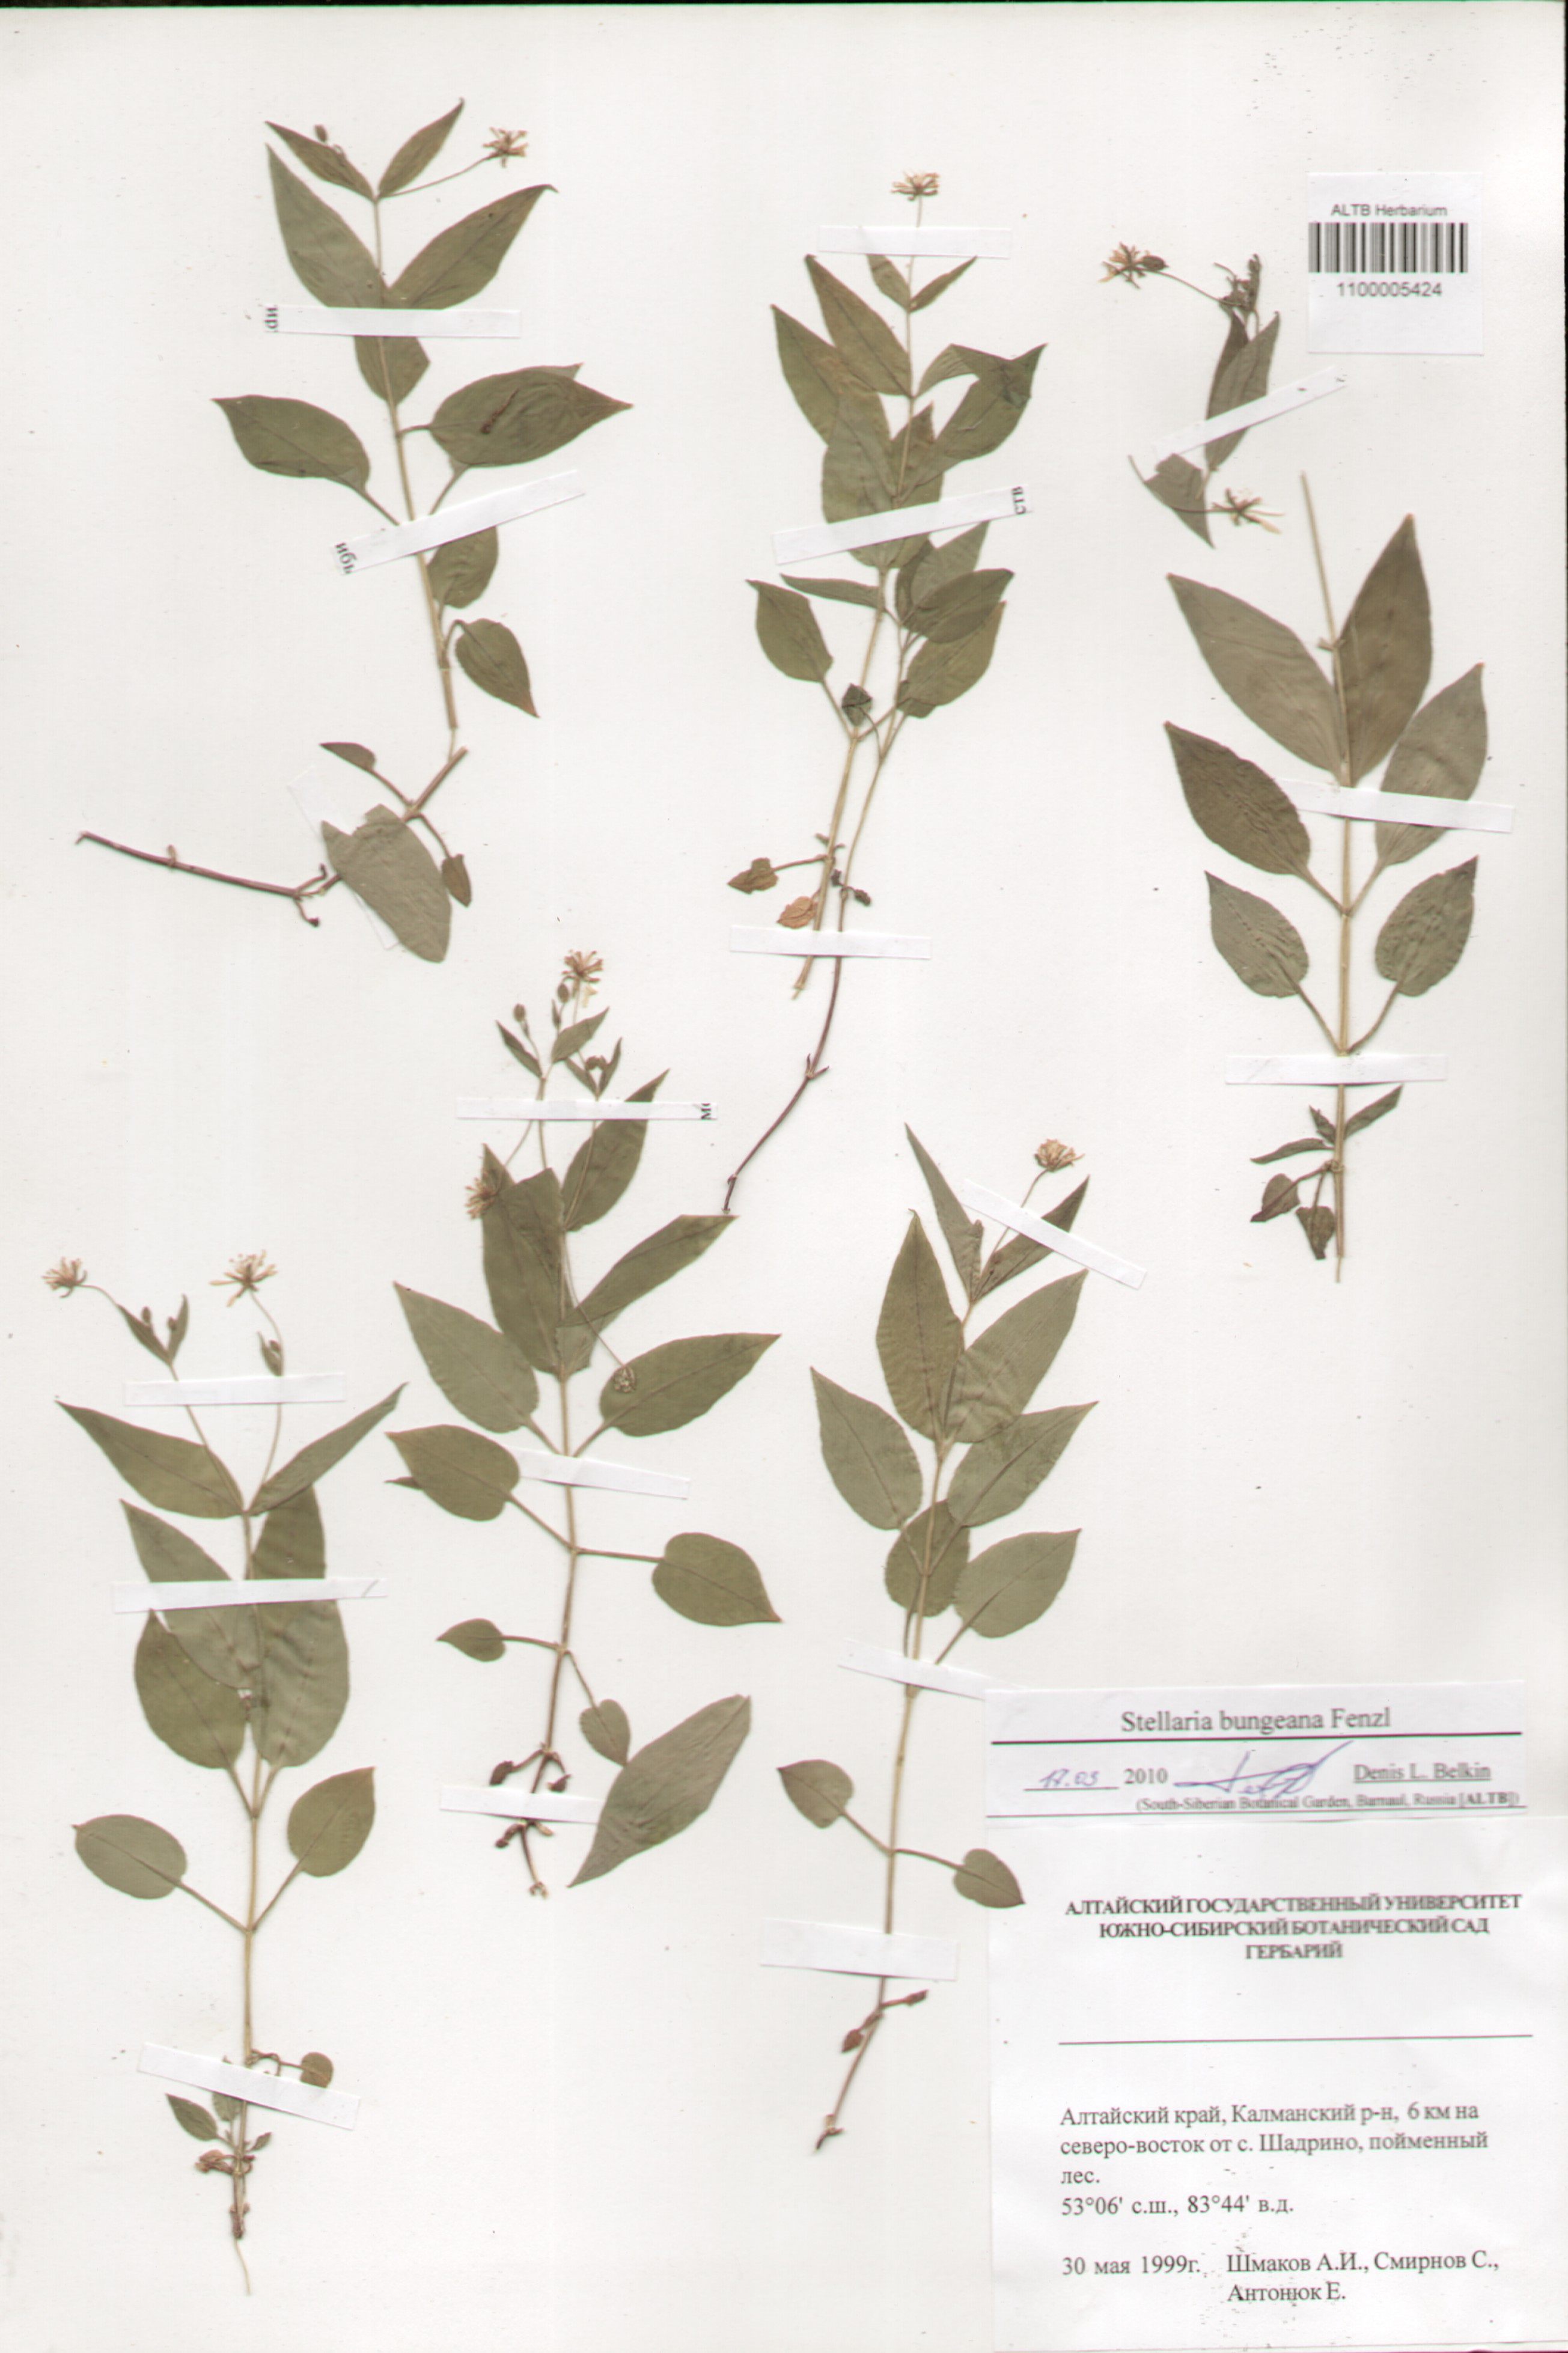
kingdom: Plantae
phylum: Tracheophyta
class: Magnoliopsida
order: Caryophyllales
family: Caryophyllaceae
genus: Stellaria
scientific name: Stellaria bungeana
